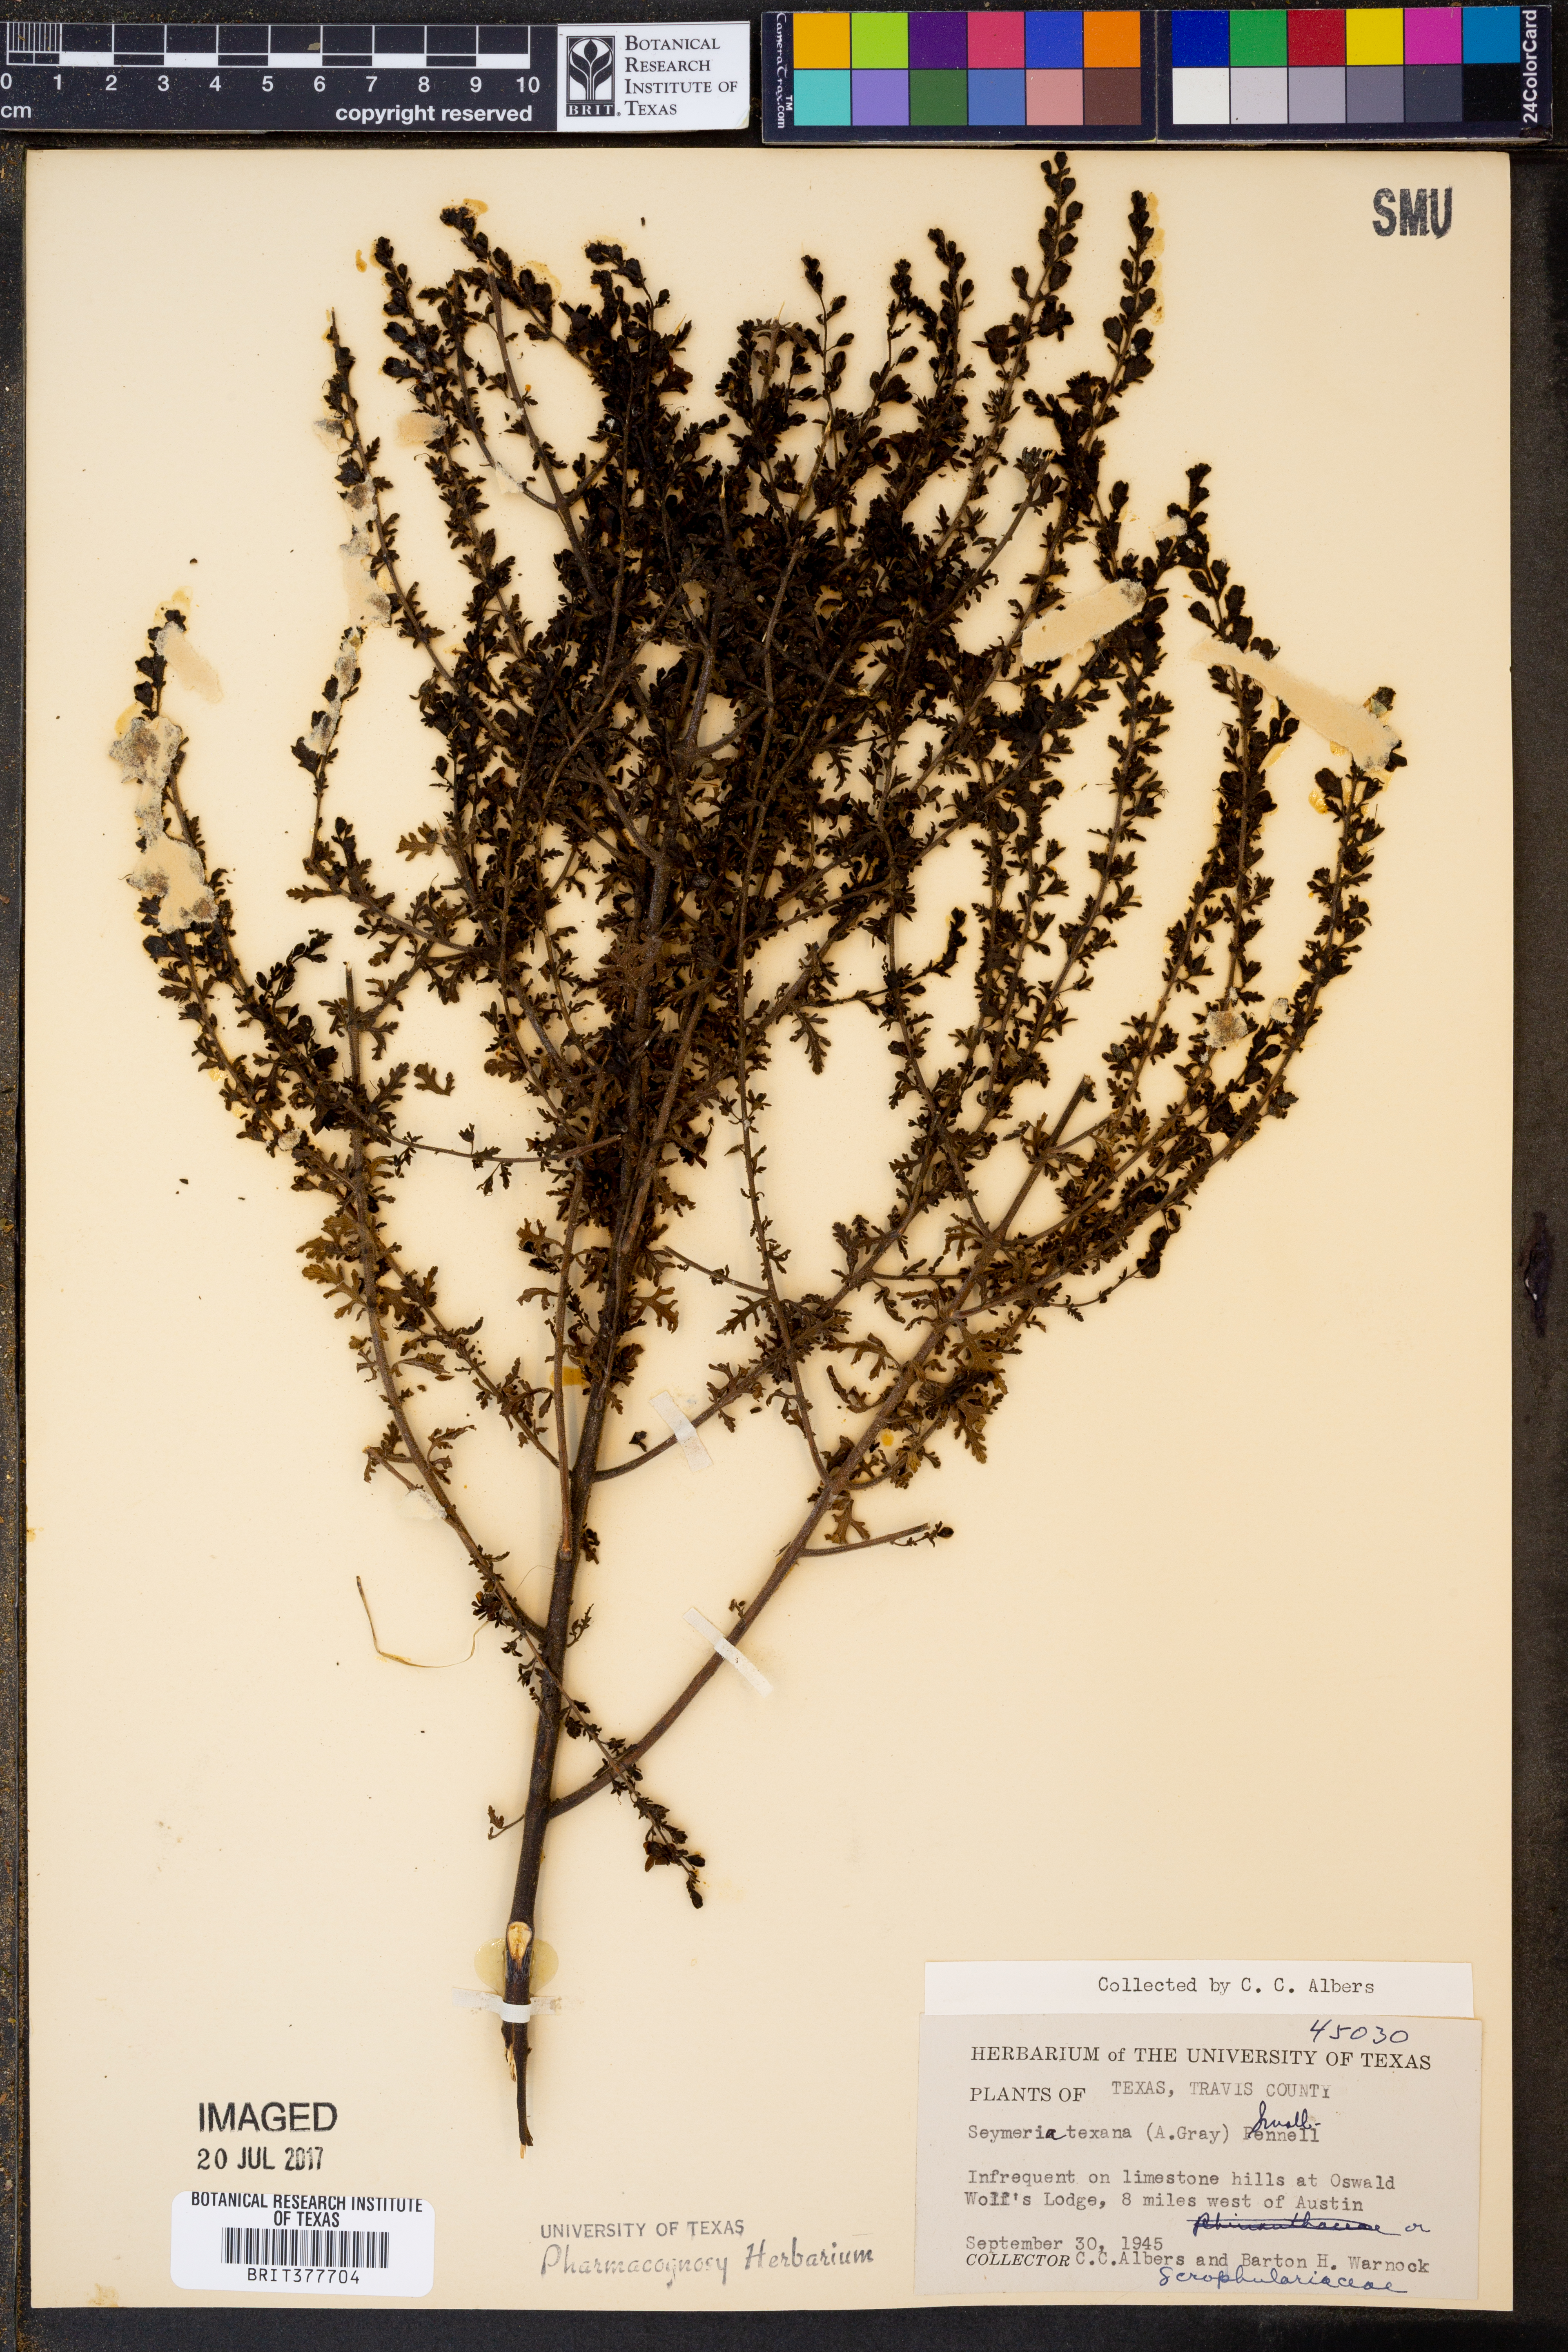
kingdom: Plantae
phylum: Tracheophyta
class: Magnoliopsida
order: Lamiales
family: Orobanchaceae
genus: Seymeria
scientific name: Seymeria bipinnatisecta
